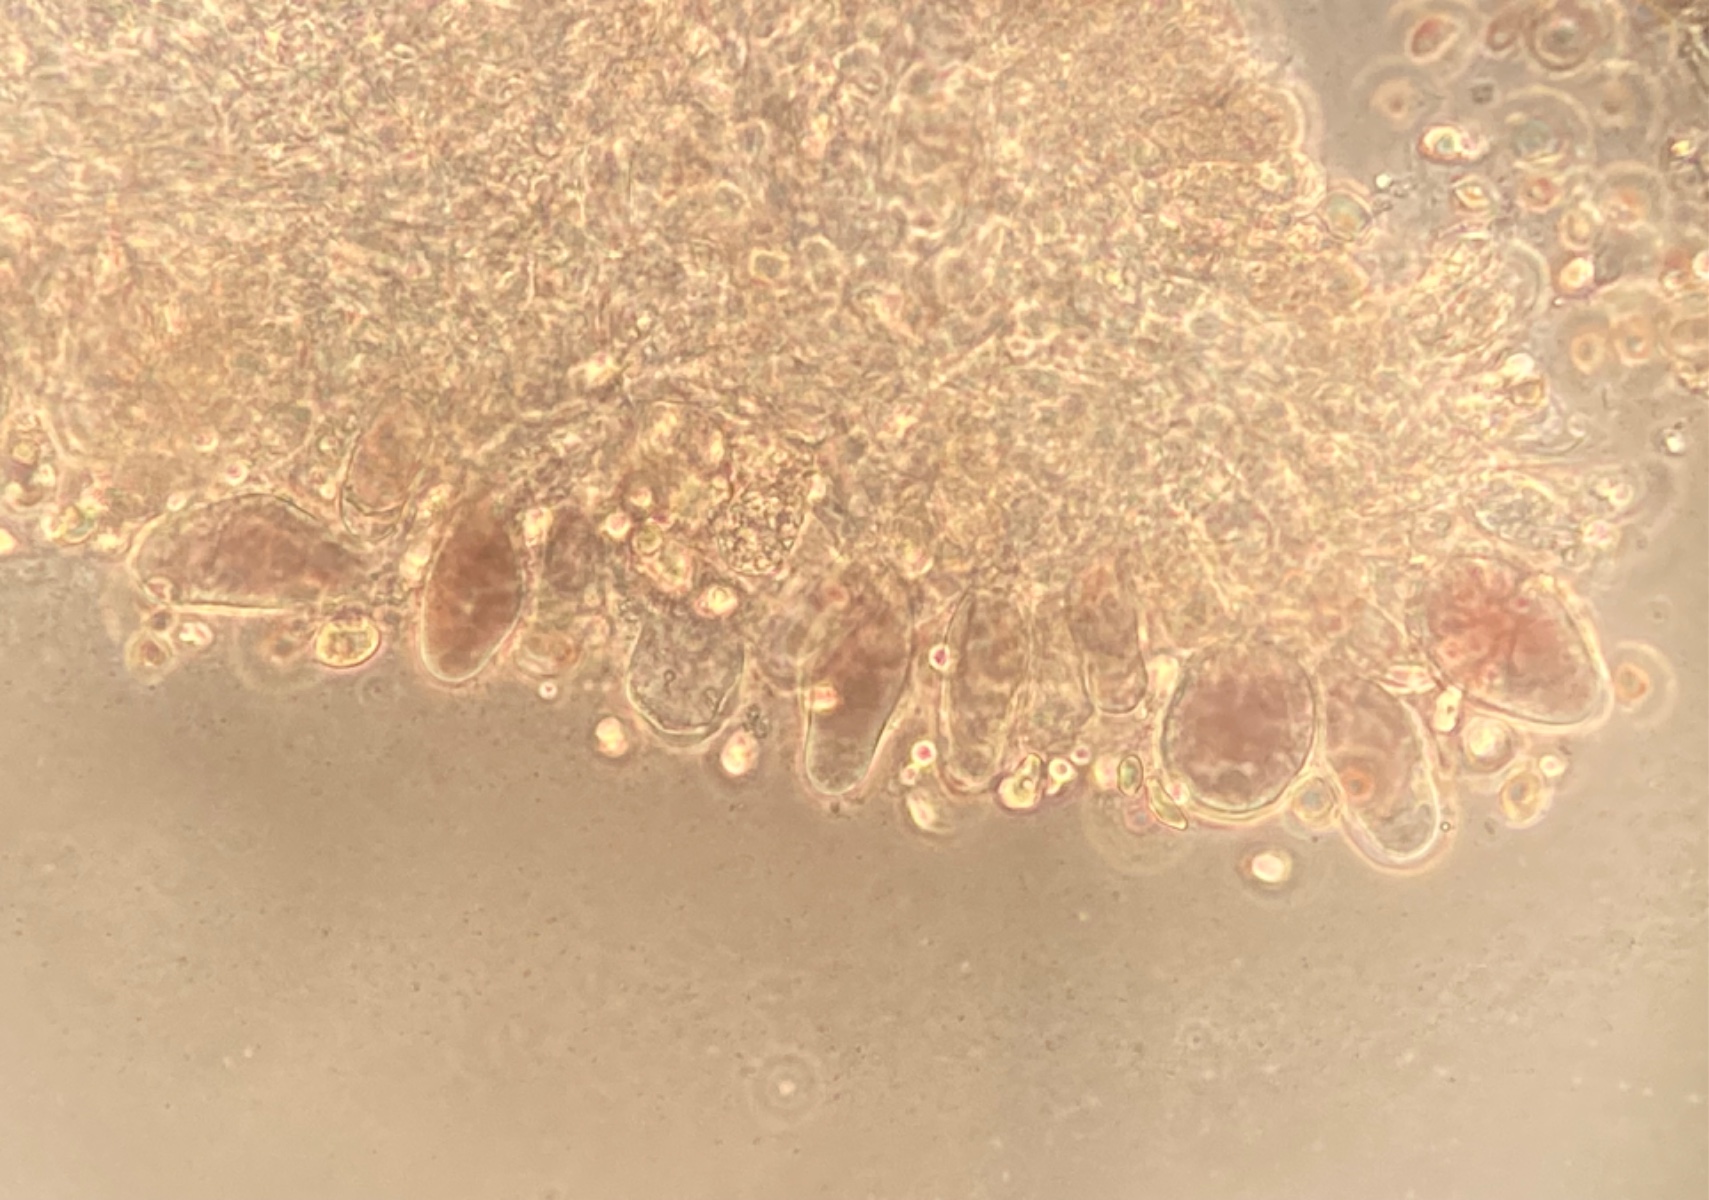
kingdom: Fungi
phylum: Basidiomycota
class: Agaricomycetes
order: Agaricales
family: Mycenaceae
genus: Mycena
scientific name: Mycena purpureofusca
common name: purpur-huesvamp
